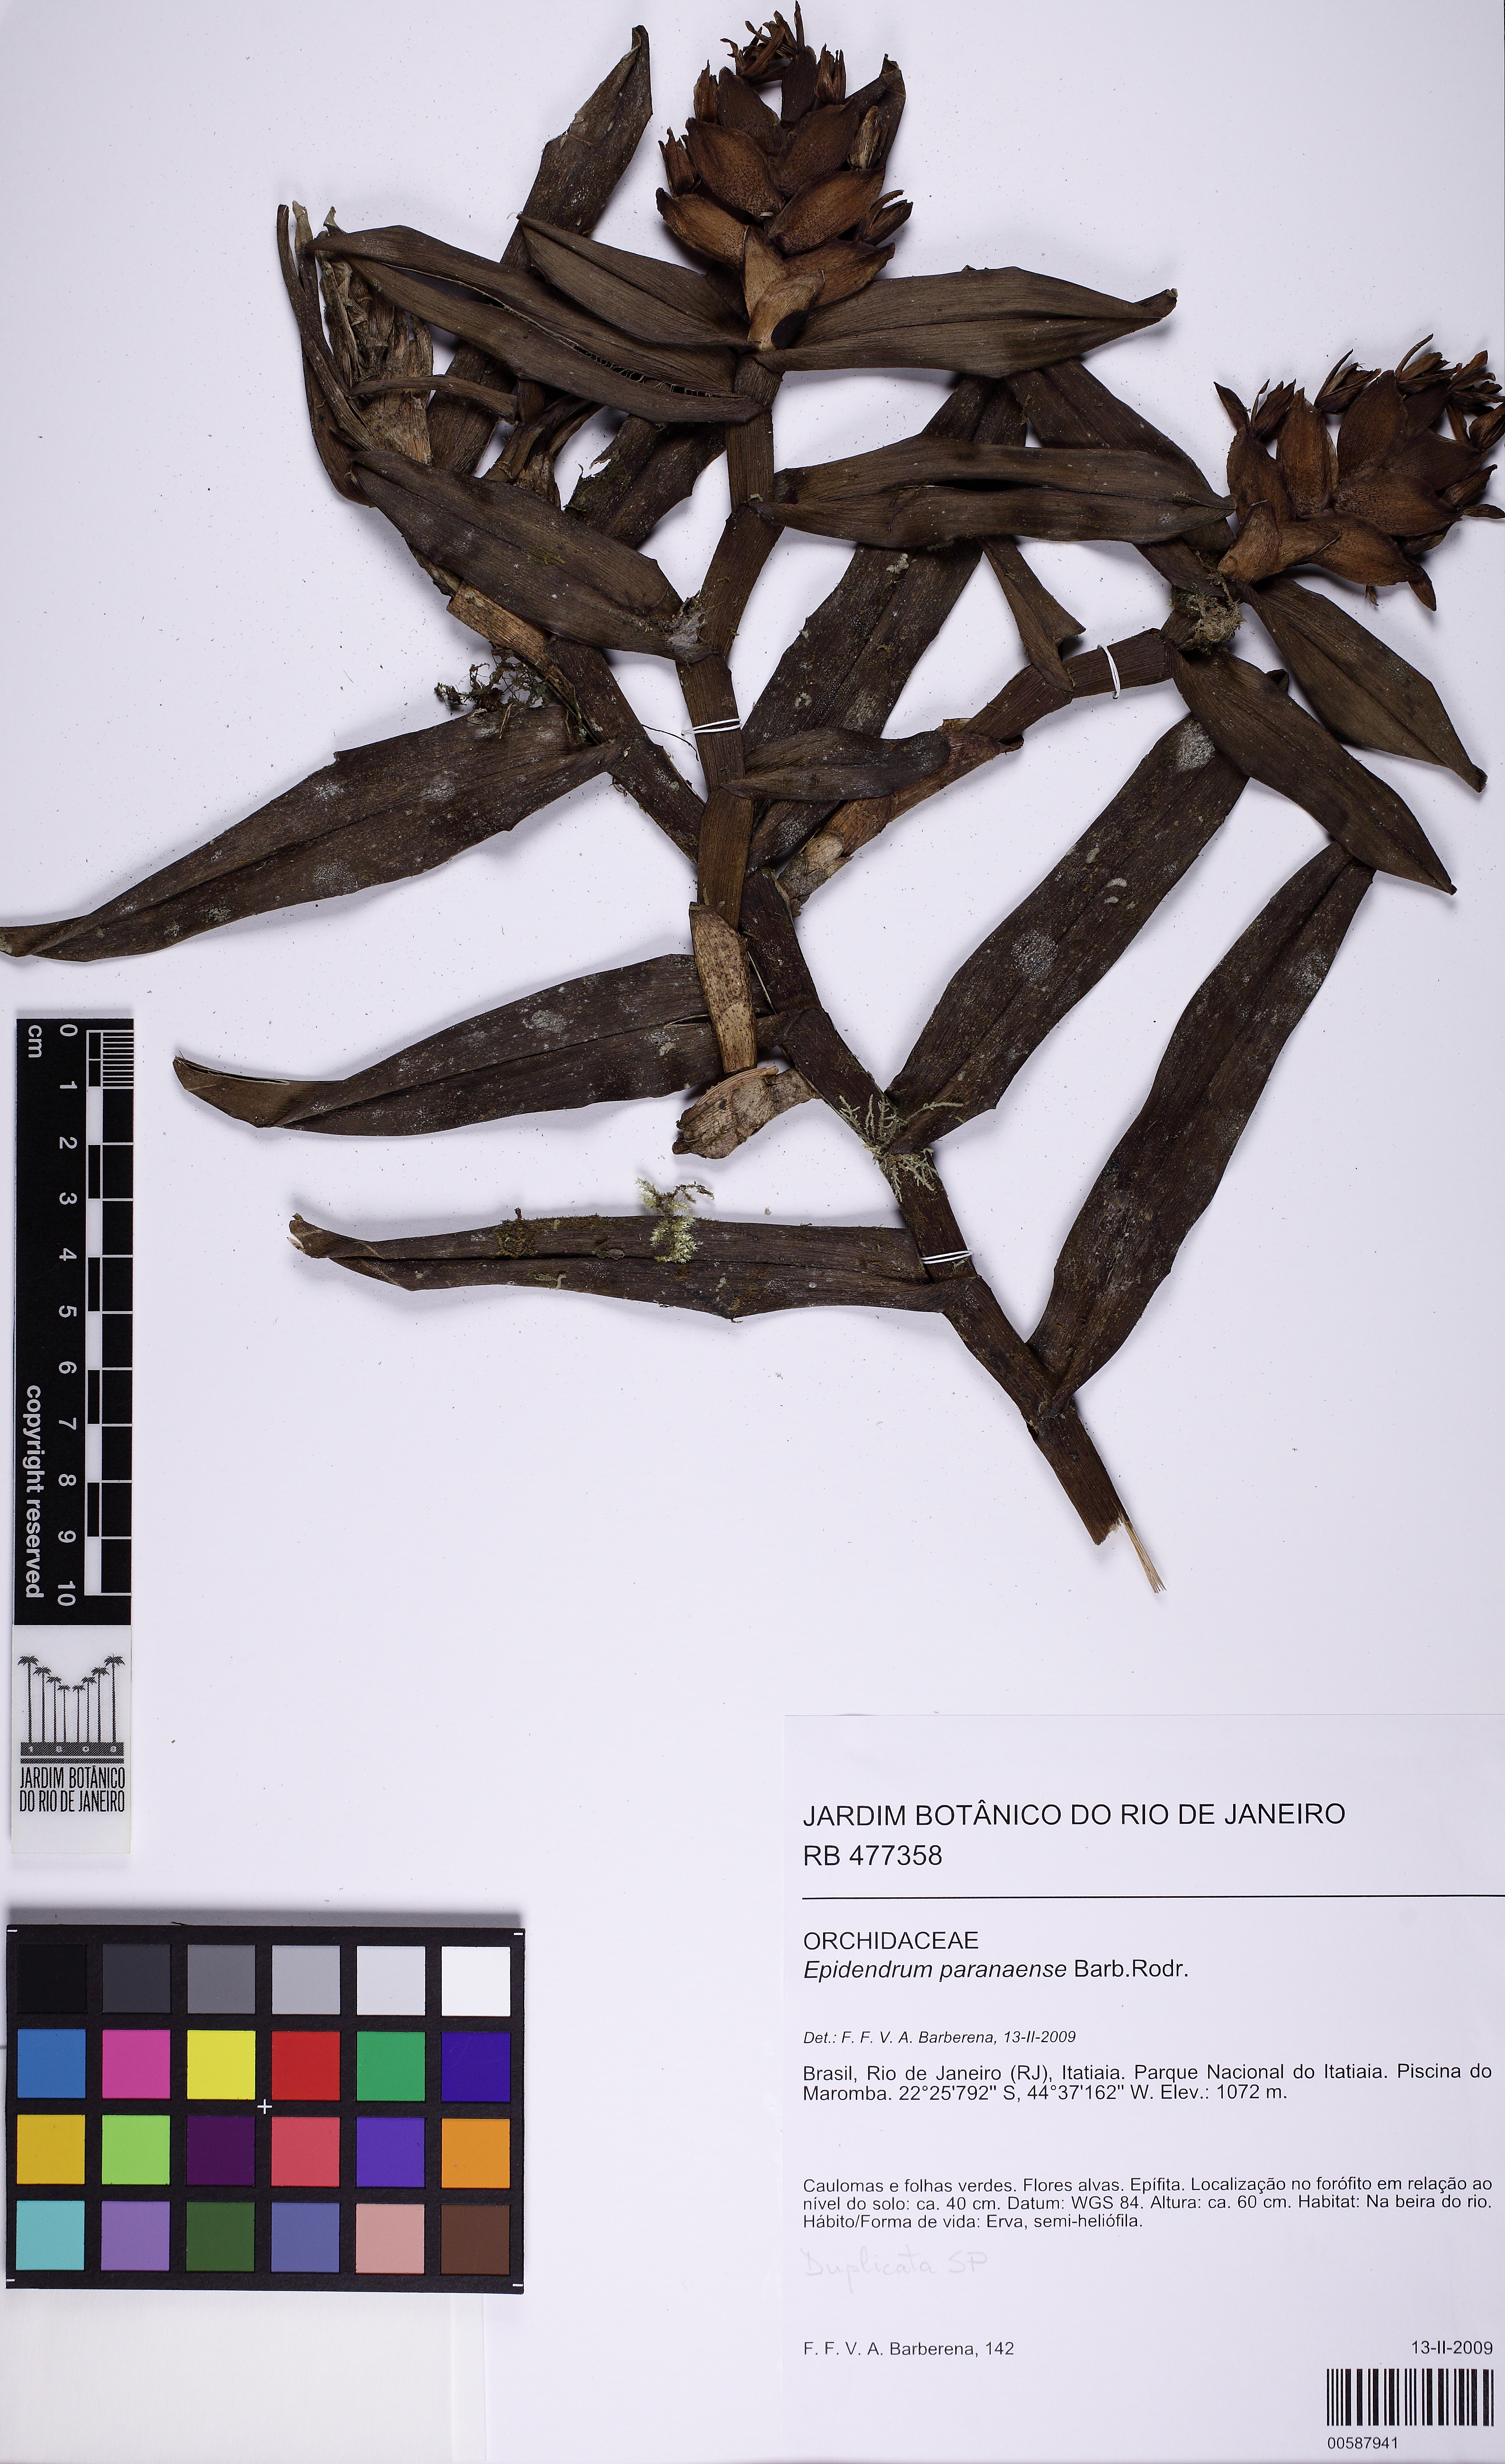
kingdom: Plantae
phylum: Tracheophyta
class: Liliopsida
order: Asparagales
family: Orchidaceae
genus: Epidendrum
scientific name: Epidendrum paranaense
